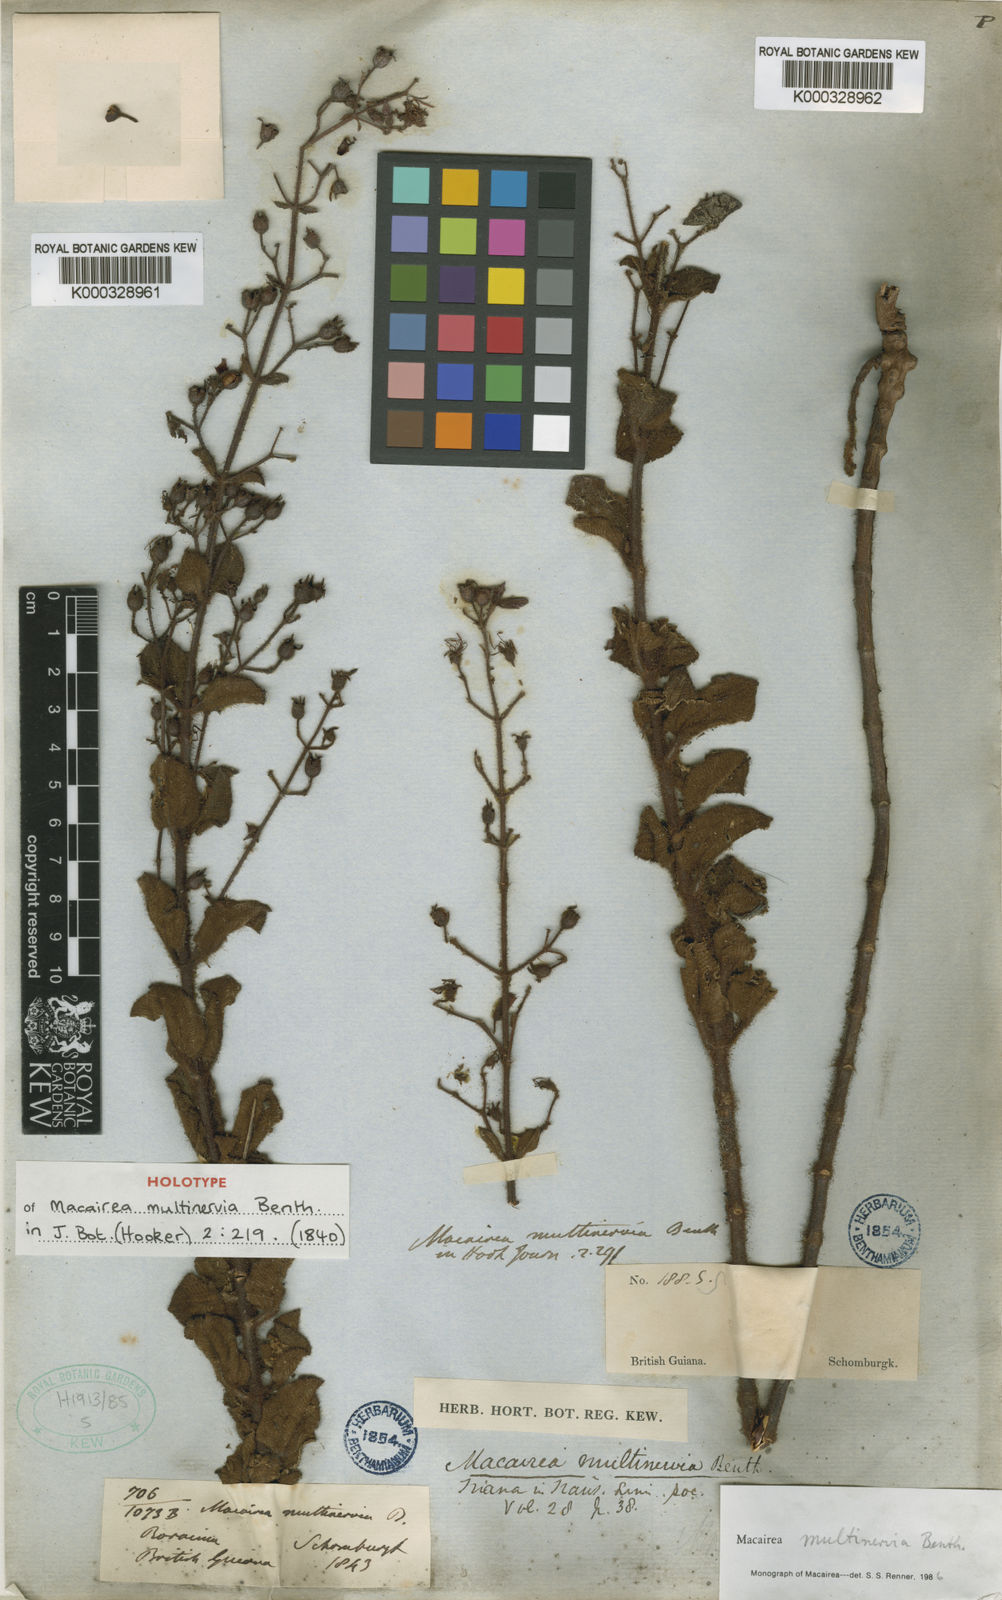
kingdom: Plantae
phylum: Tracheophyta
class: Magnoliopsida
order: Myrtales
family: Melastomataceae
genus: Macairea
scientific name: Macairea multinervia
